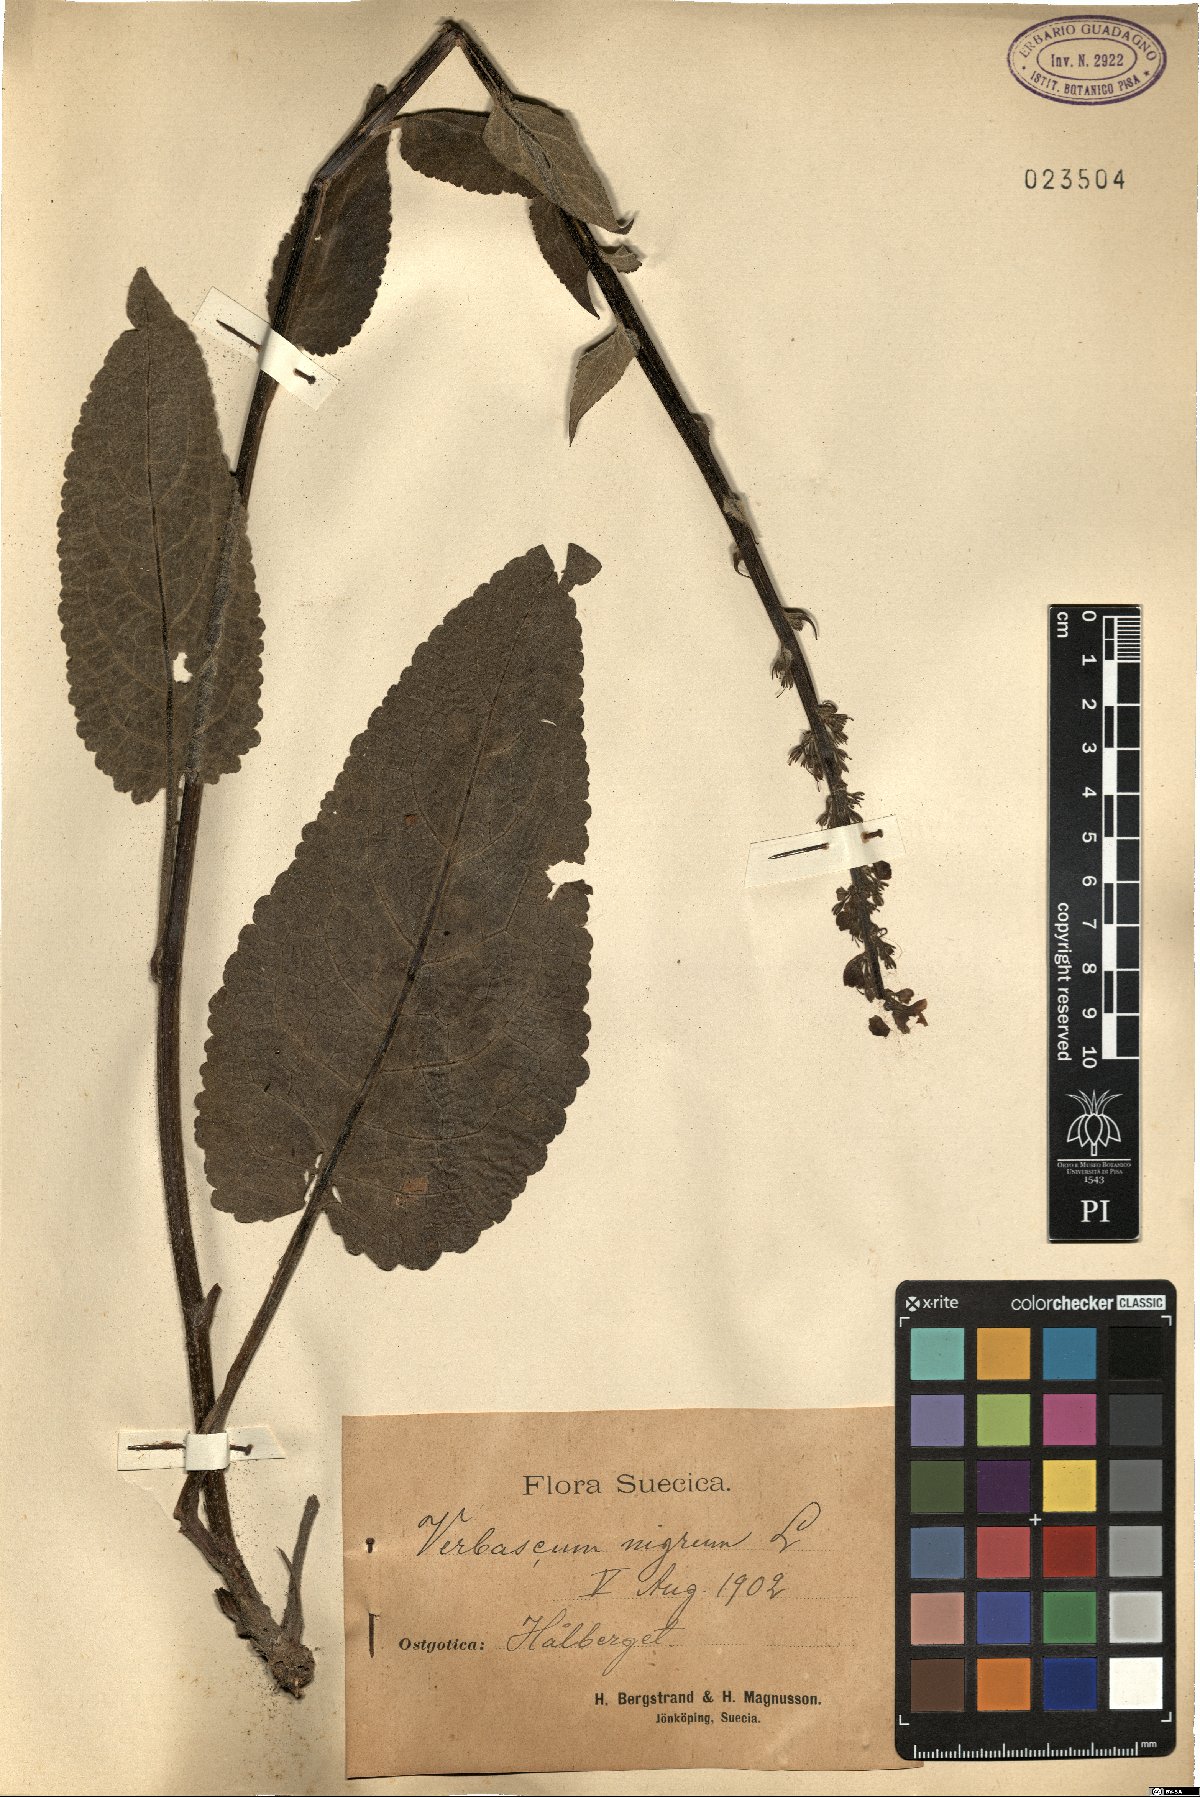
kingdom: Plantae
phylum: Tracheophyta
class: Magnoliopsida
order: Lamiales
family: Scrophulariaceae
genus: Verbascum
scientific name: Verbascum nigrum
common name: Dark mullein
